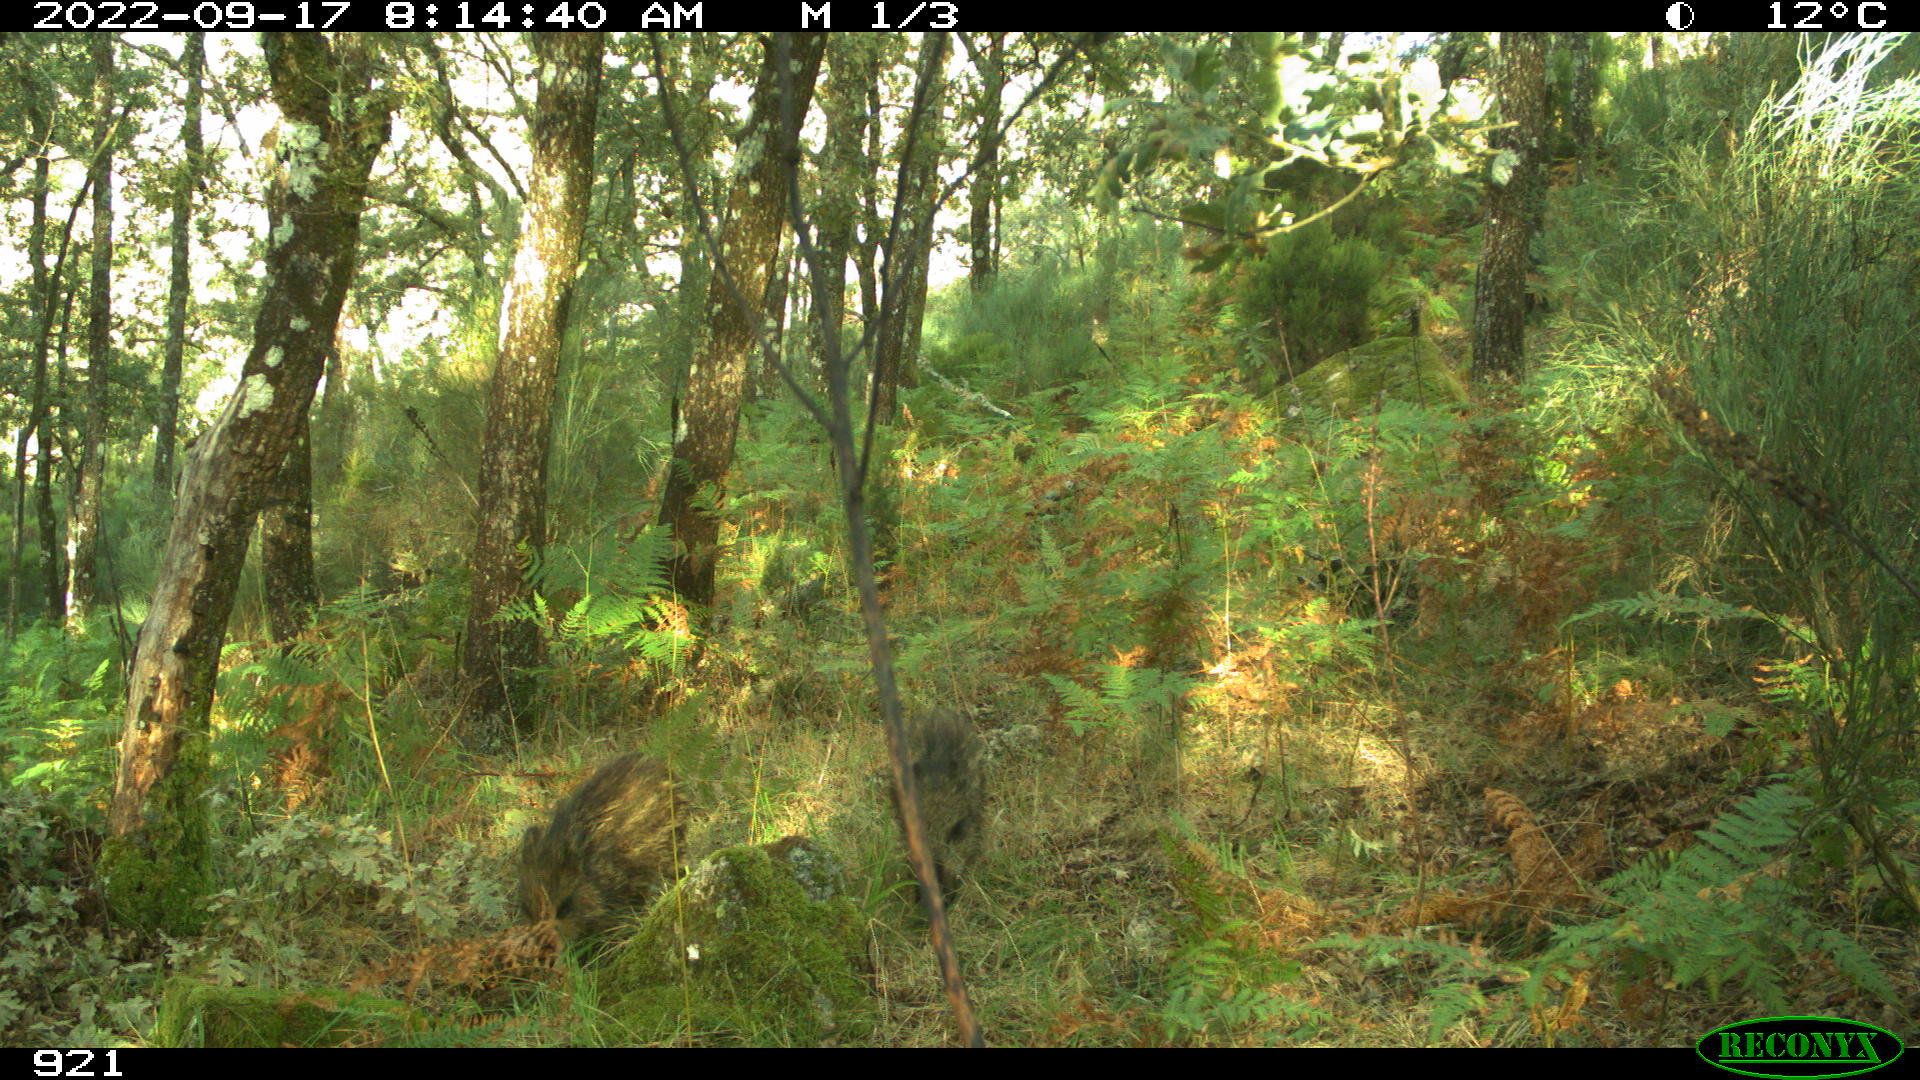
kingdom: Animalia
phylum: Chordata
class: Mammalia
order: Artiodactyla
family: Suidae
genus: Sus
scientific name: Sus scrofa
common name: Wild boar
